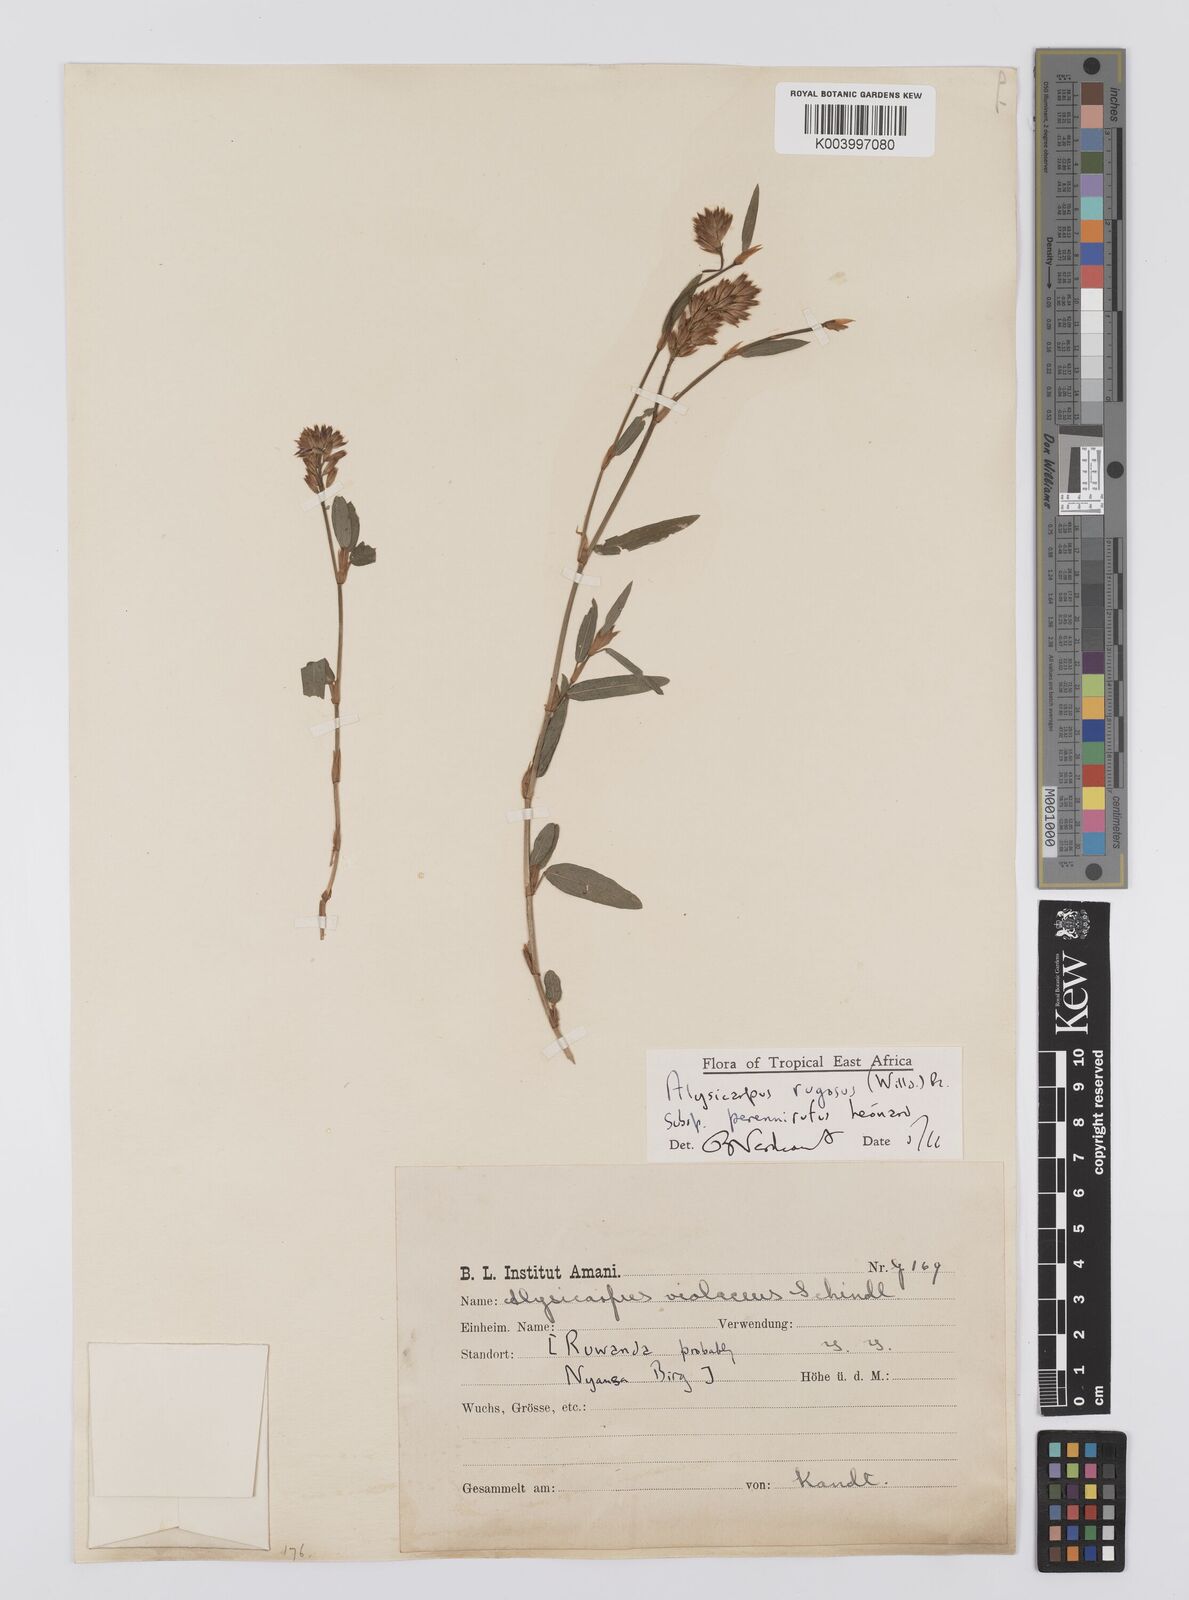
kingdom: Plantae
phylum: Tracheophyta
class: Magnoliopsida
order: Fabales
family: Fabaceae
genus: Alysicarpus
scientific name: Alysicarpus
